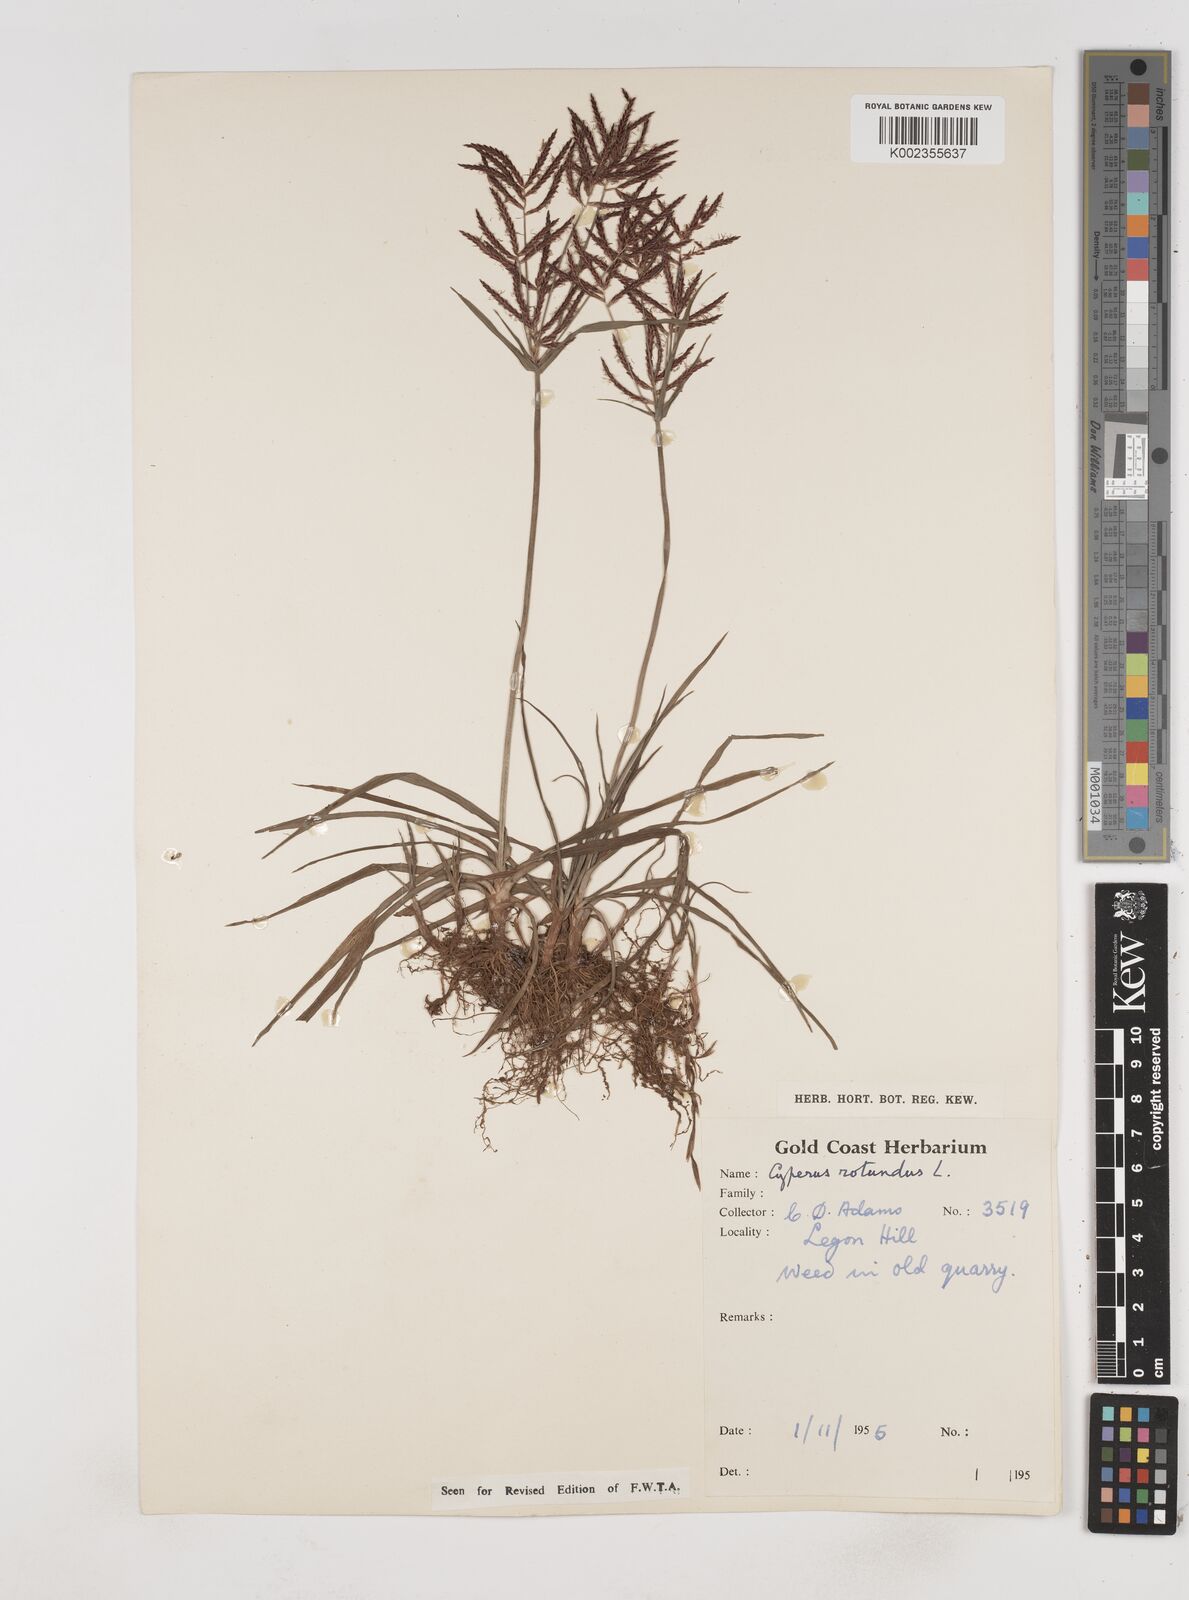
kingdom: Plantae
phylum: Tracheophyta
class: Liliopsida
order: Poales
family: Cyperaceae
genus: Cyperus
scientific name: Cyperus rotundus
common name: Nutgrass
